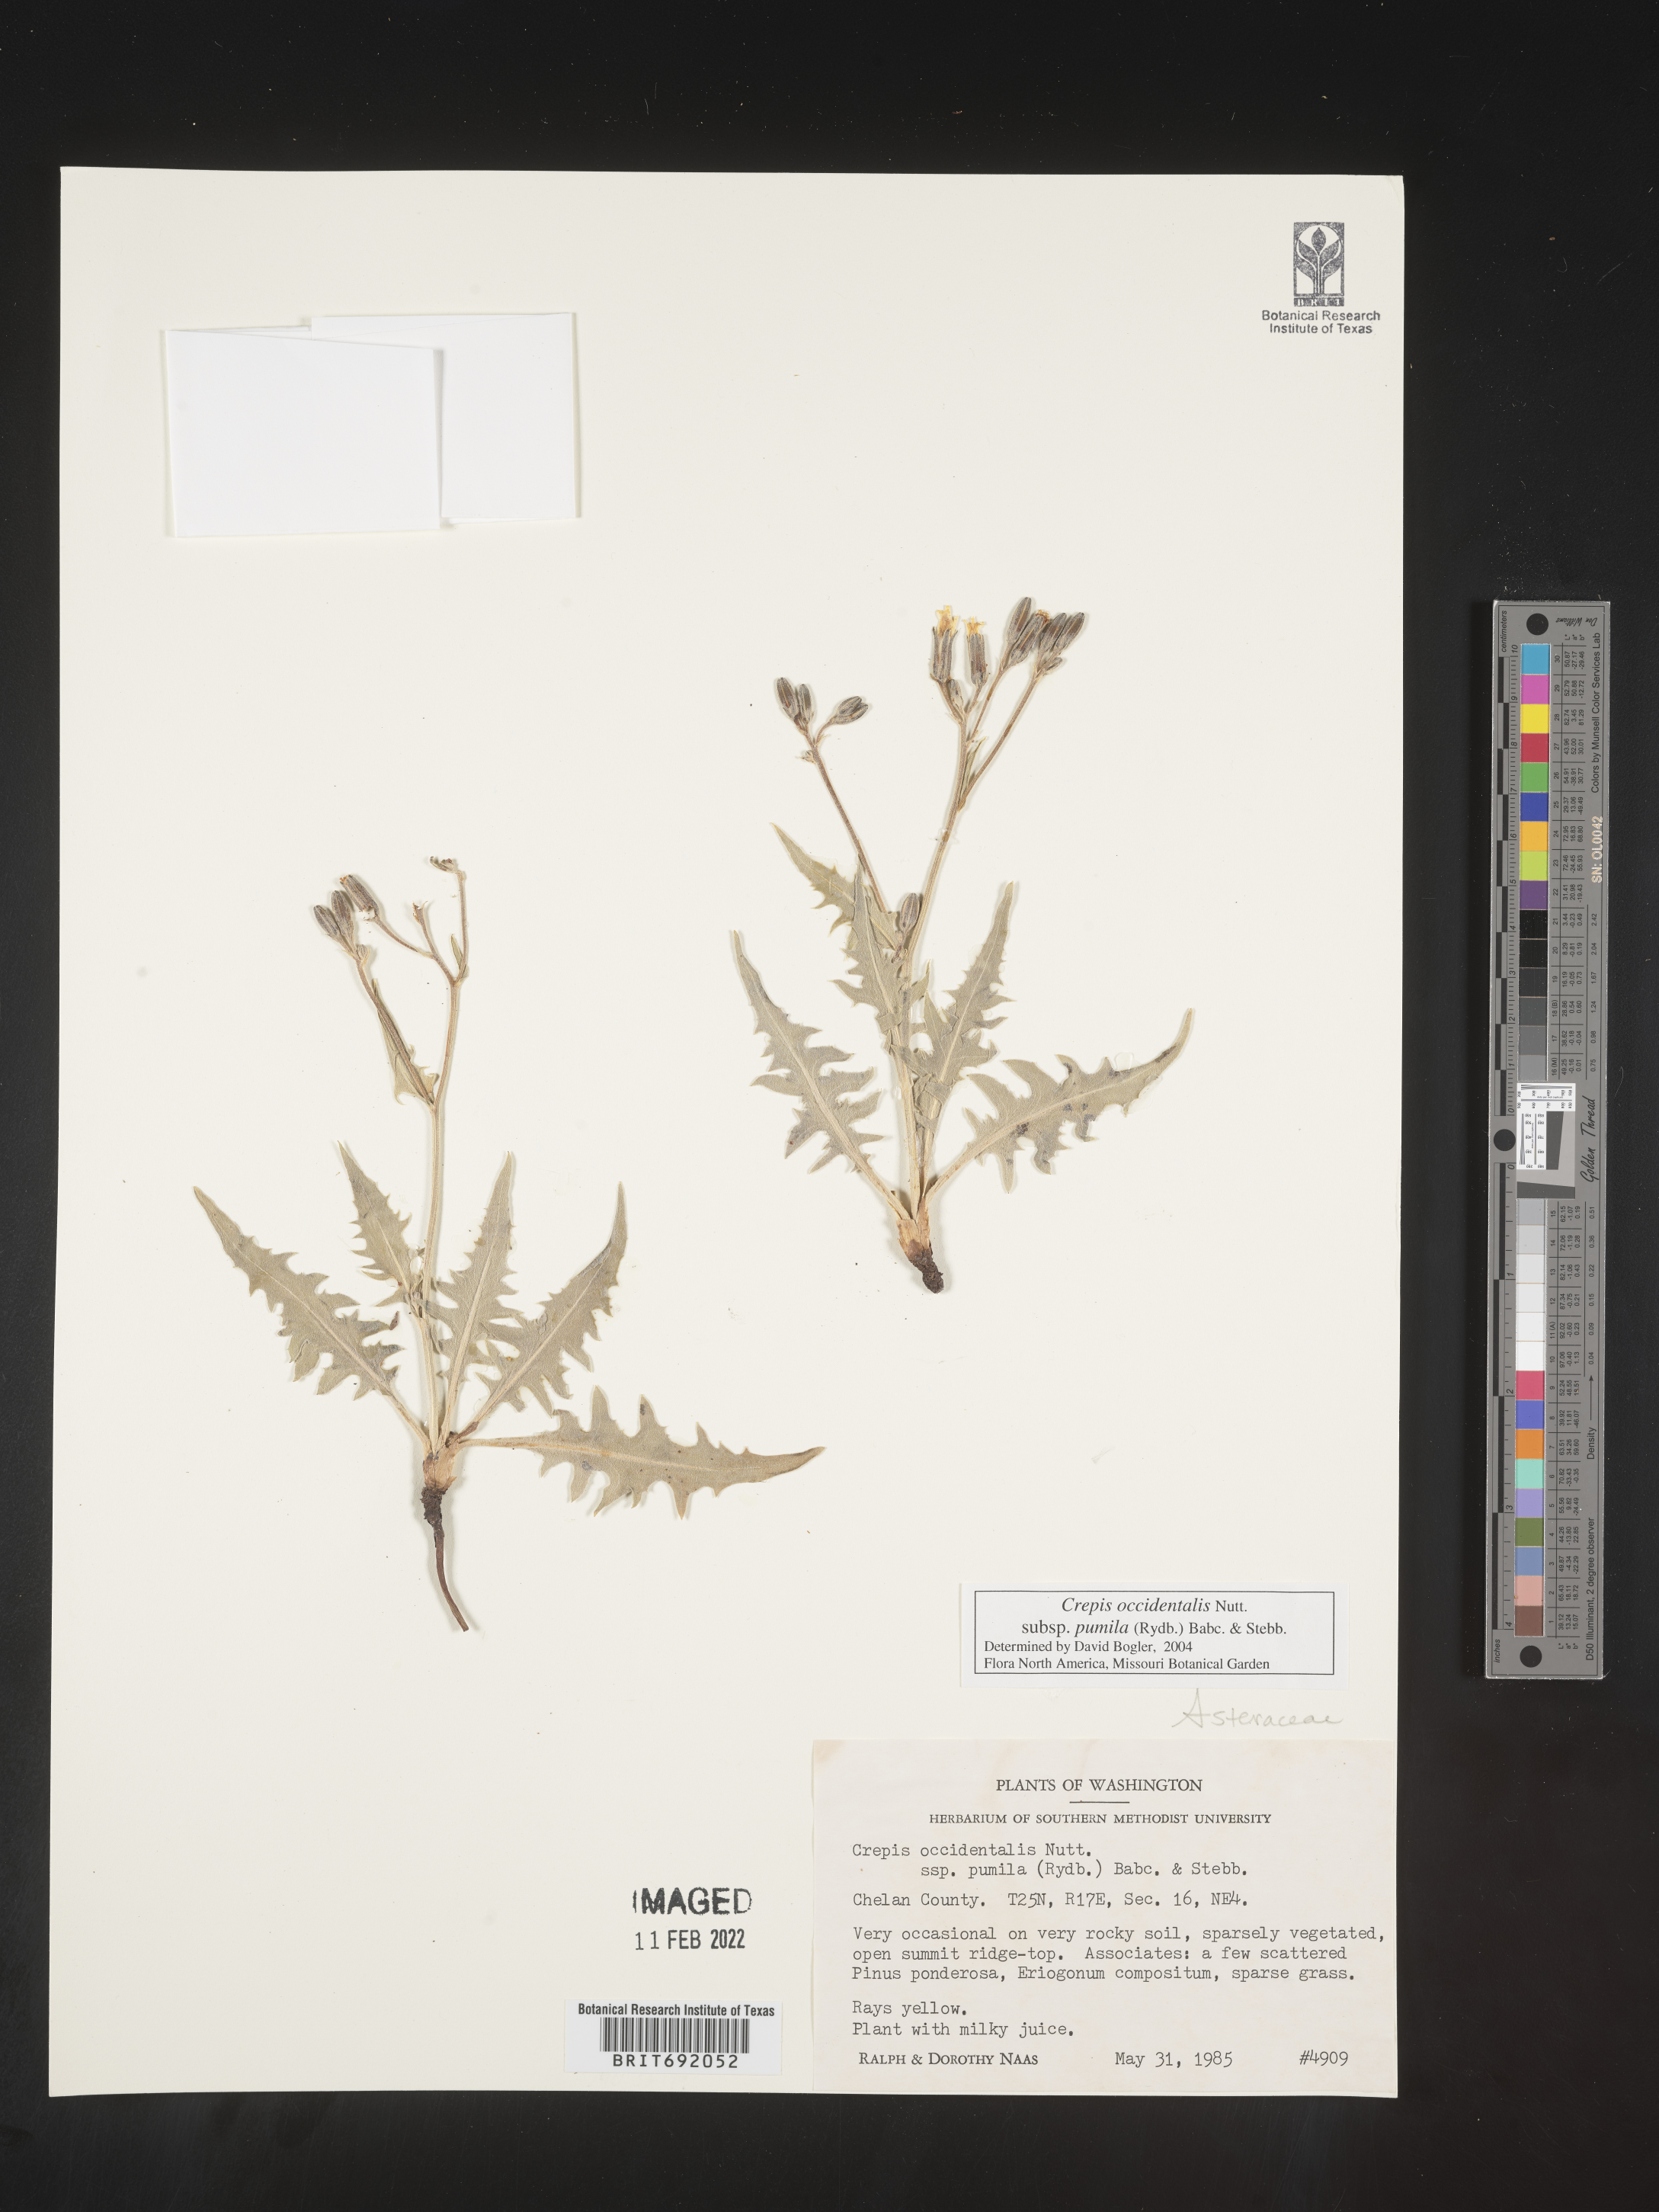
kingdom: Plantae
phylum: Tracheophyta
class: Magnoliopsida
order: Asterales
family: Asteraceae
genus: Crepis
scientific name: Crepis occidentalis
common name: Gray hawk's-beard
